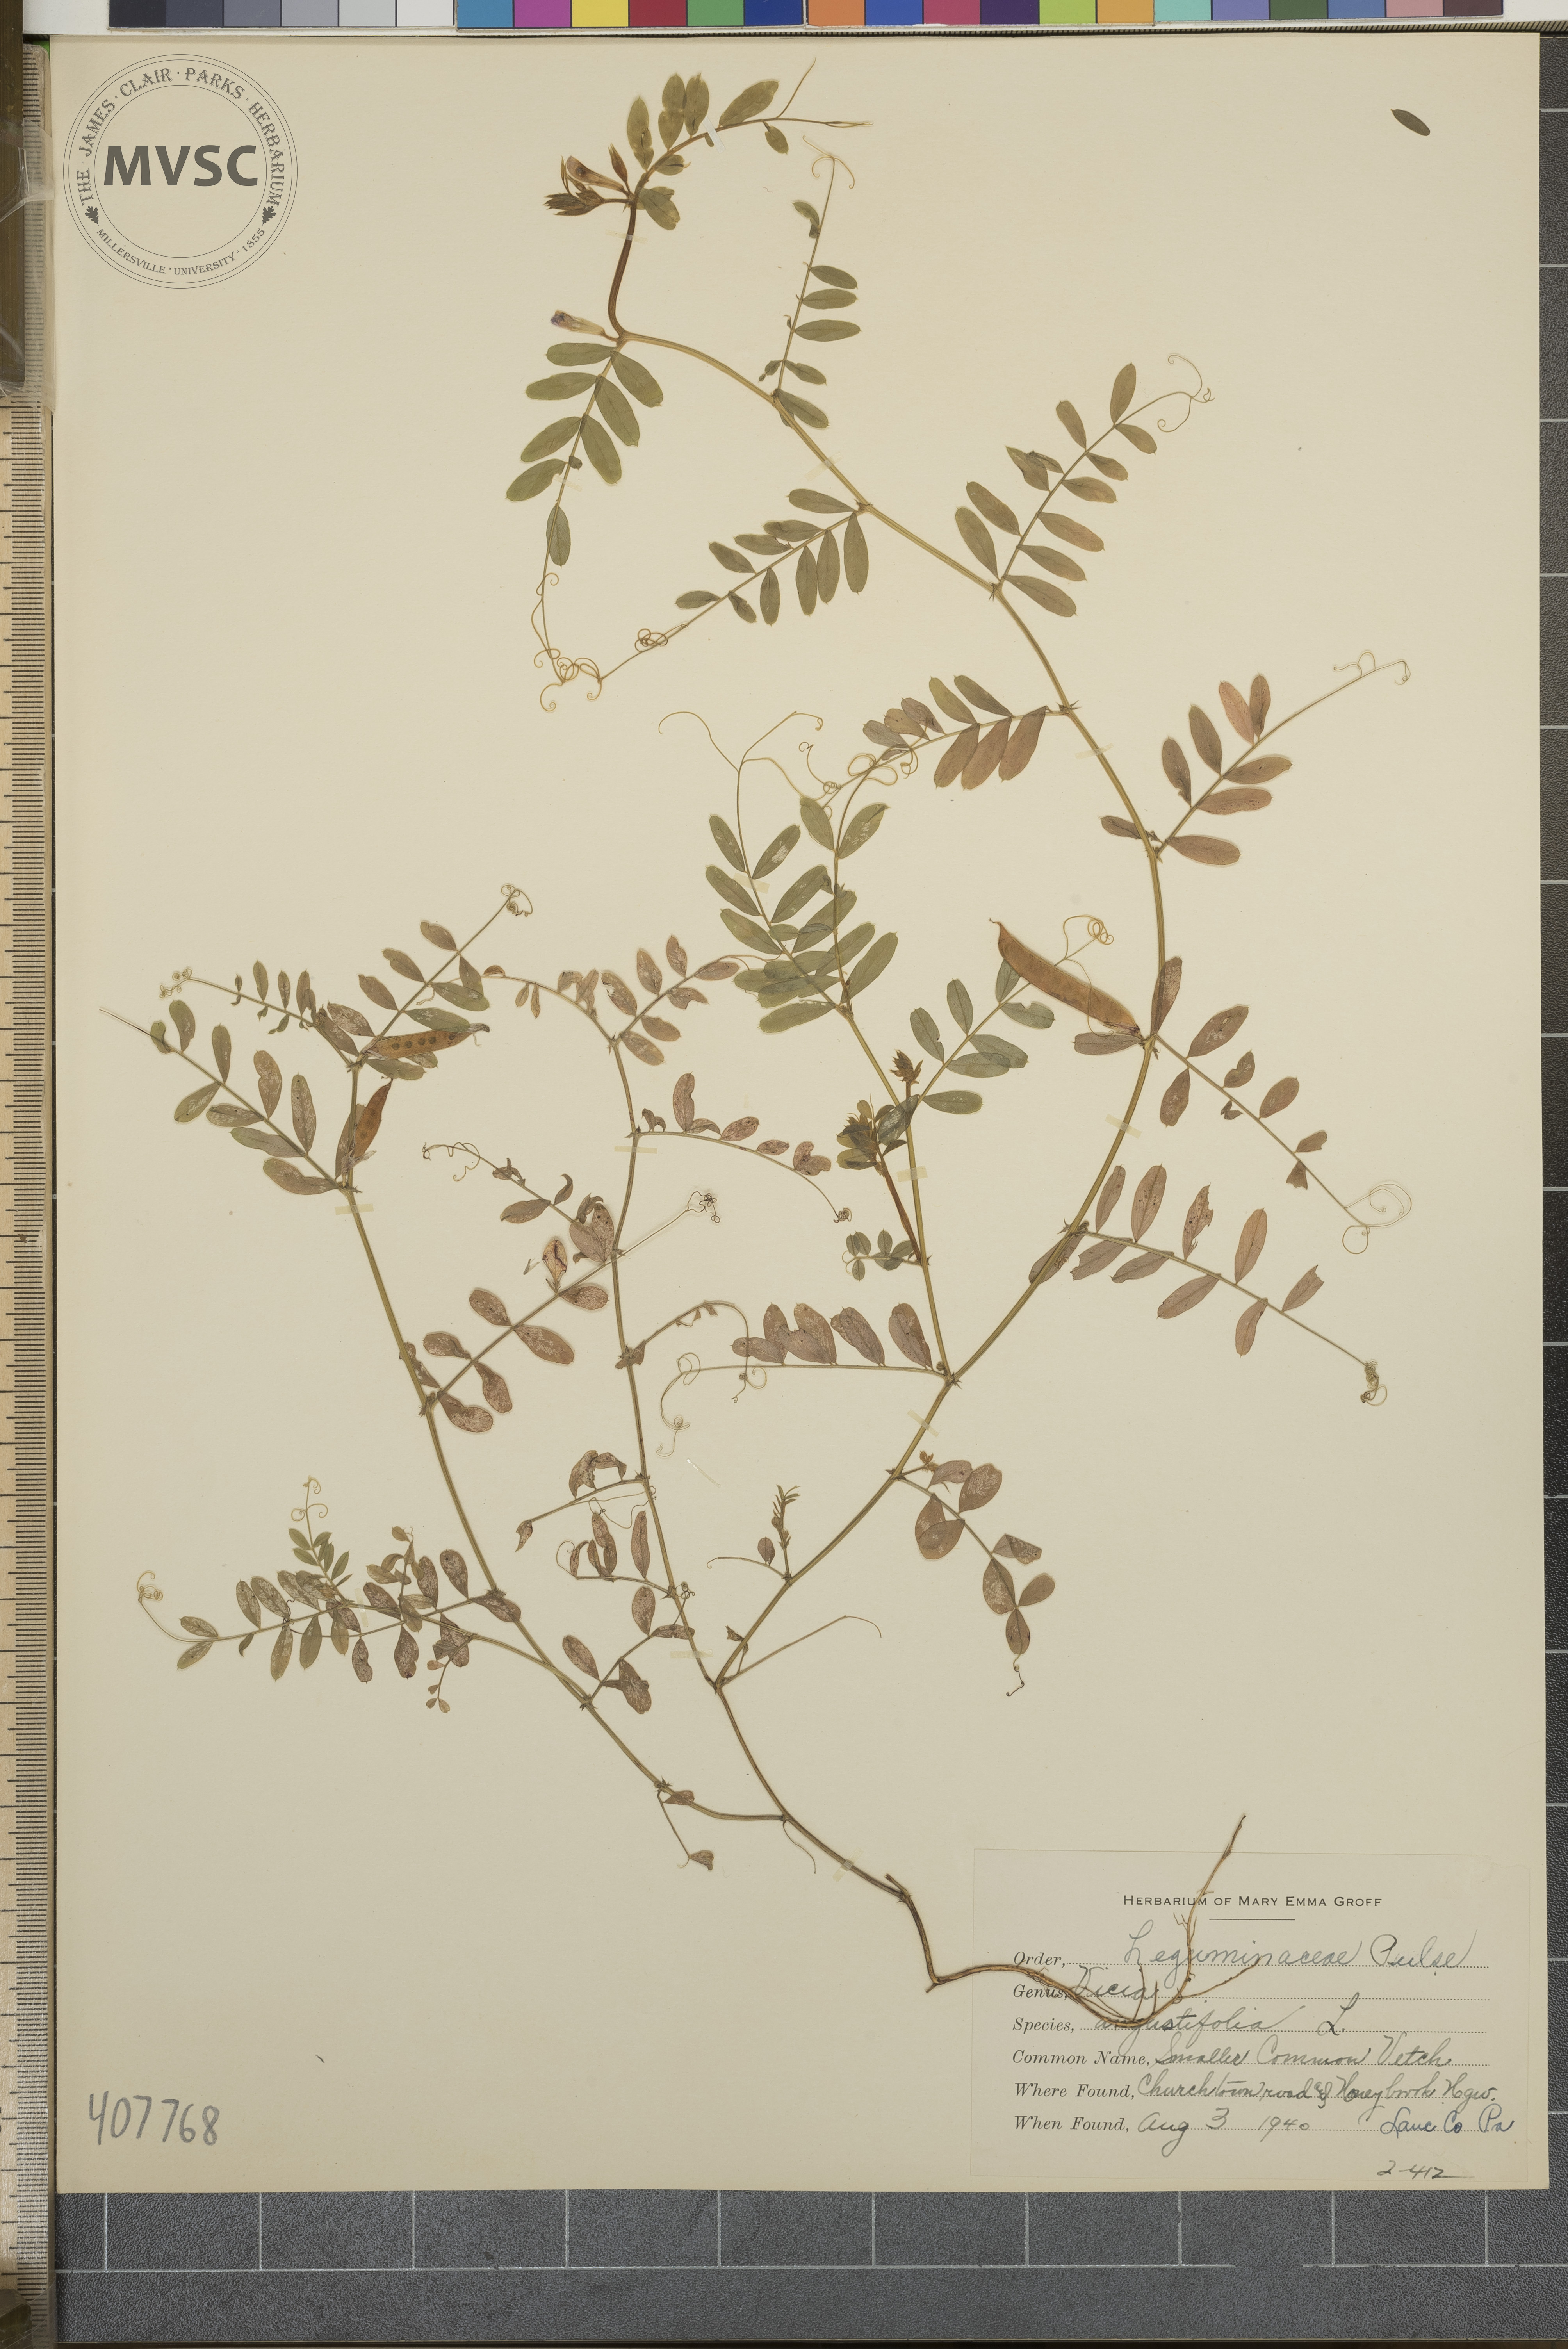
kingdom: Plantae
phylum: Tracheophyta
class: Magnoliopsida
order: Fabales
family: Fabaceae
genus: Vicia
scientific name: Vicia
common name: Smaller Common Vetch
